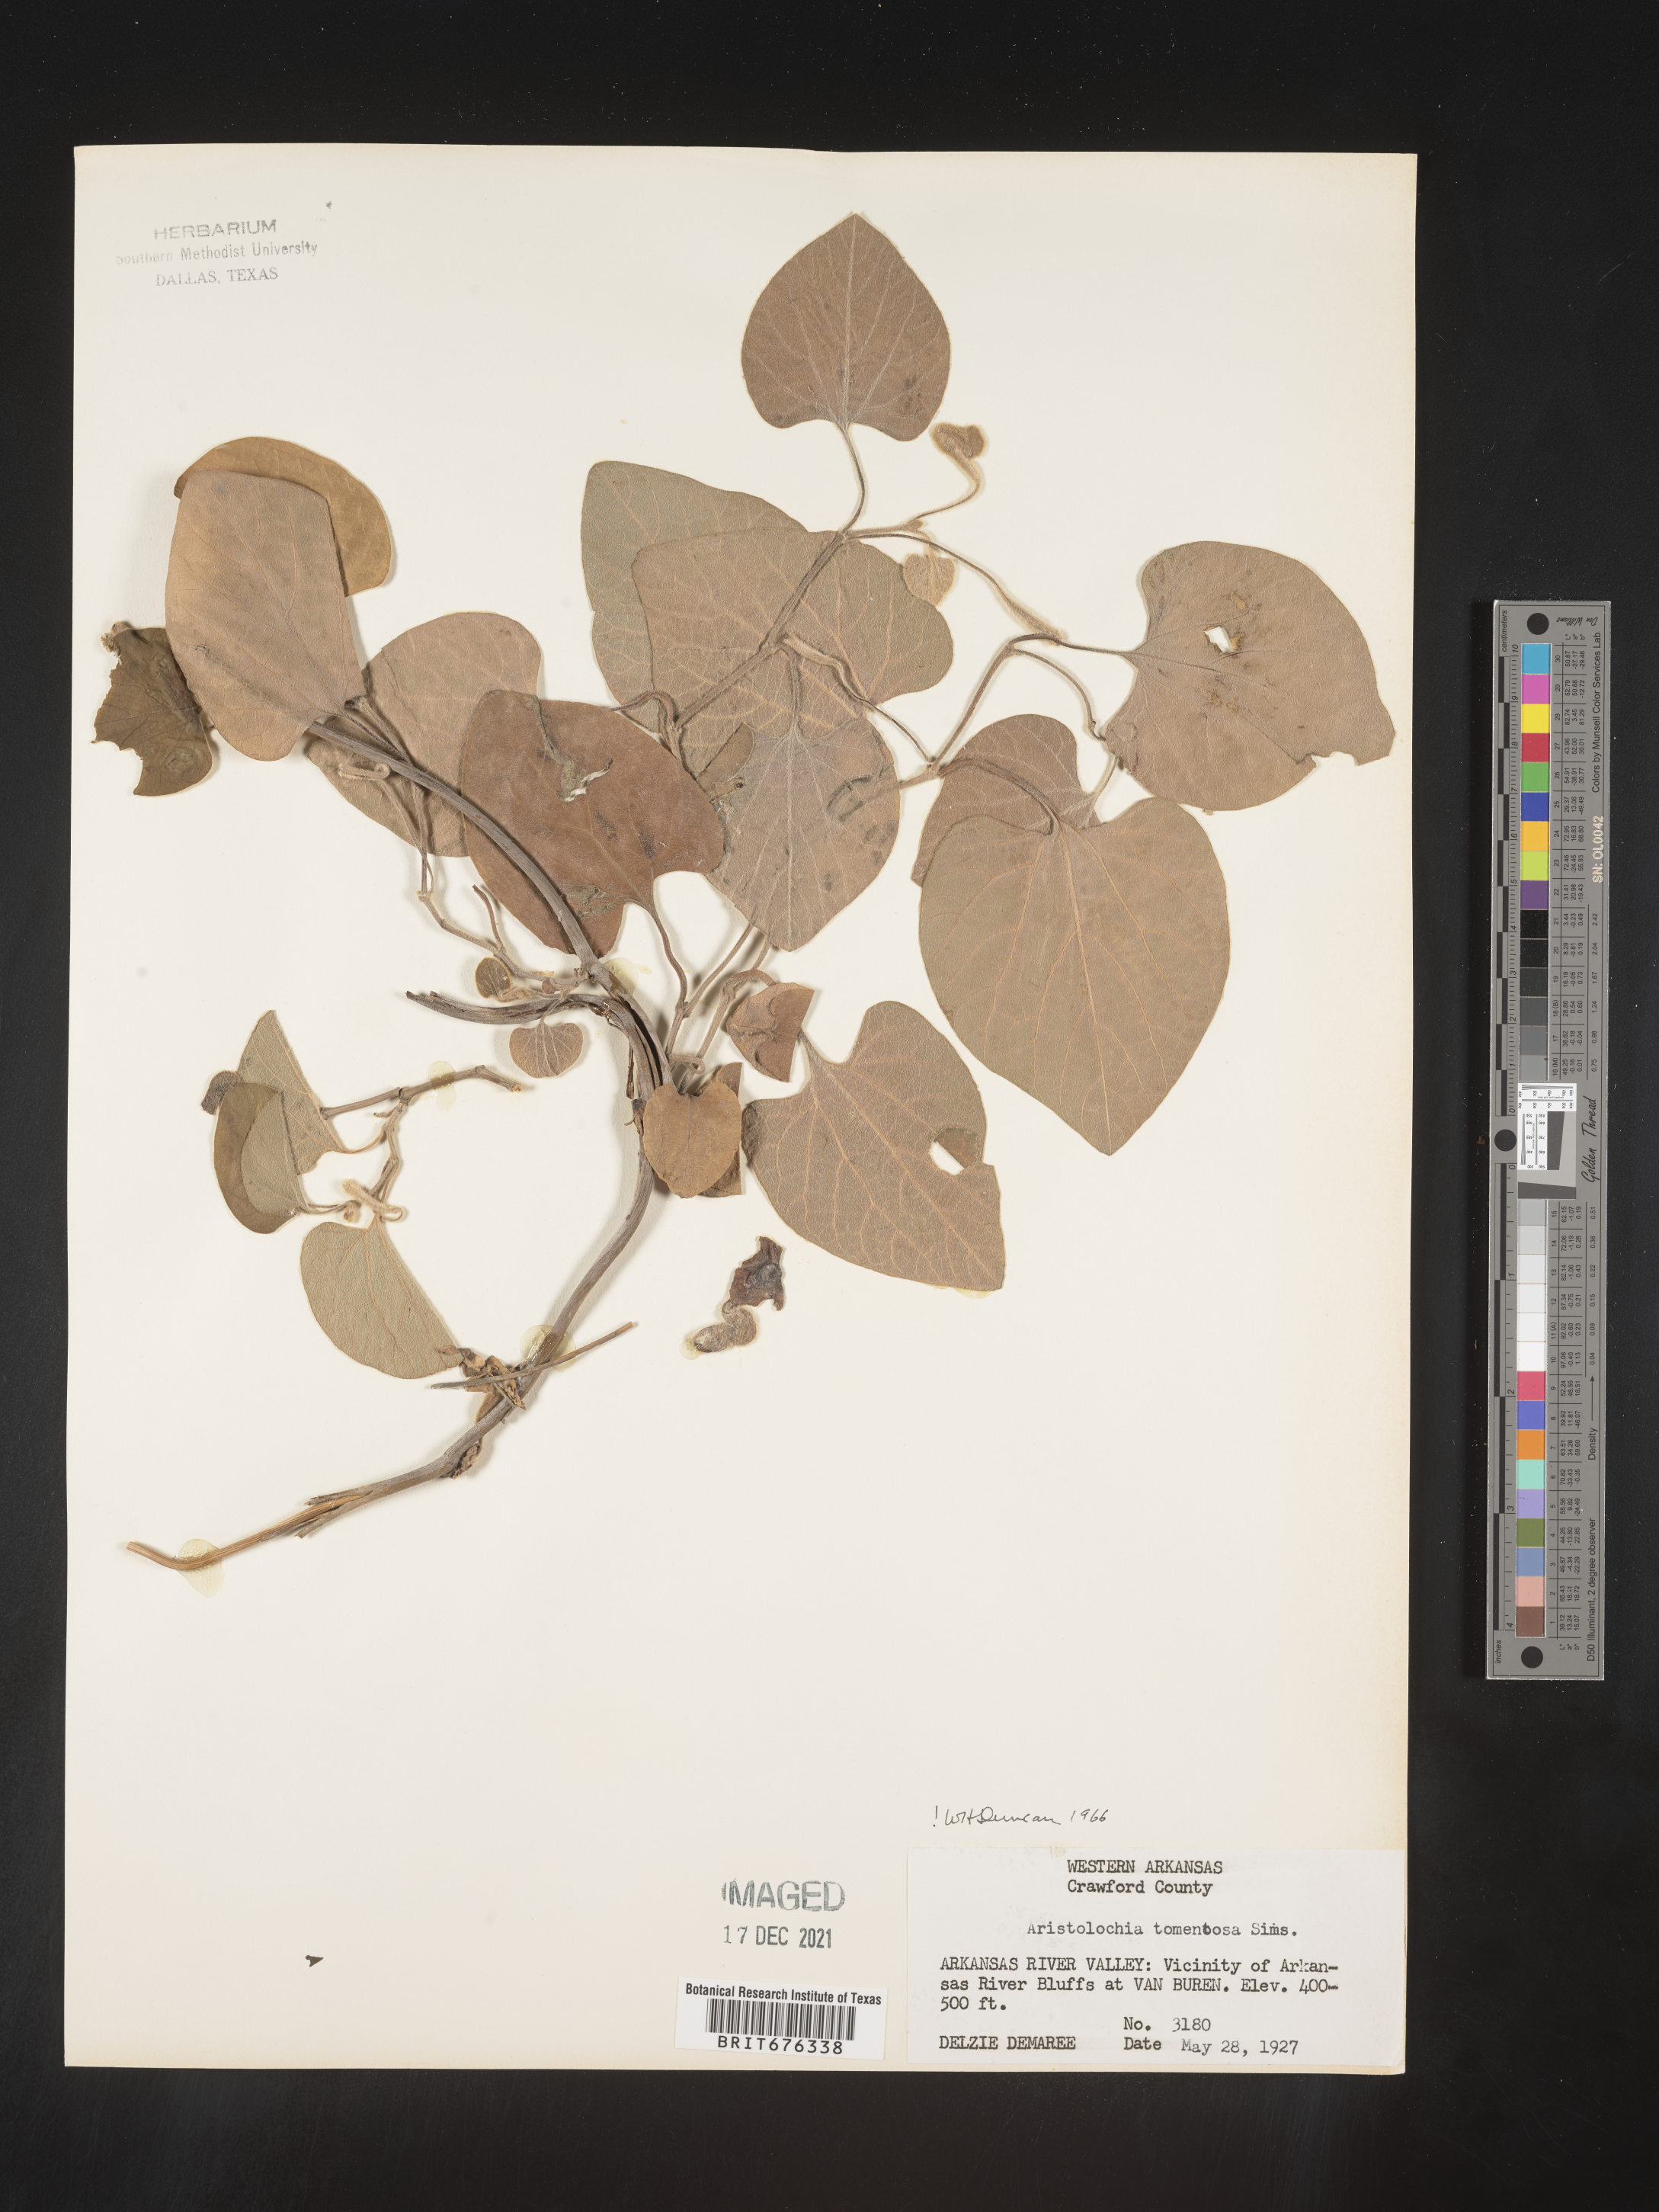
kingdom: Plantae
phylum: Tracheophyta
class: Magnoliopsida
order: Piperales
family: Aristolochiaceae
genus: Isotrema
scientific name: Isotrema tomentosum
